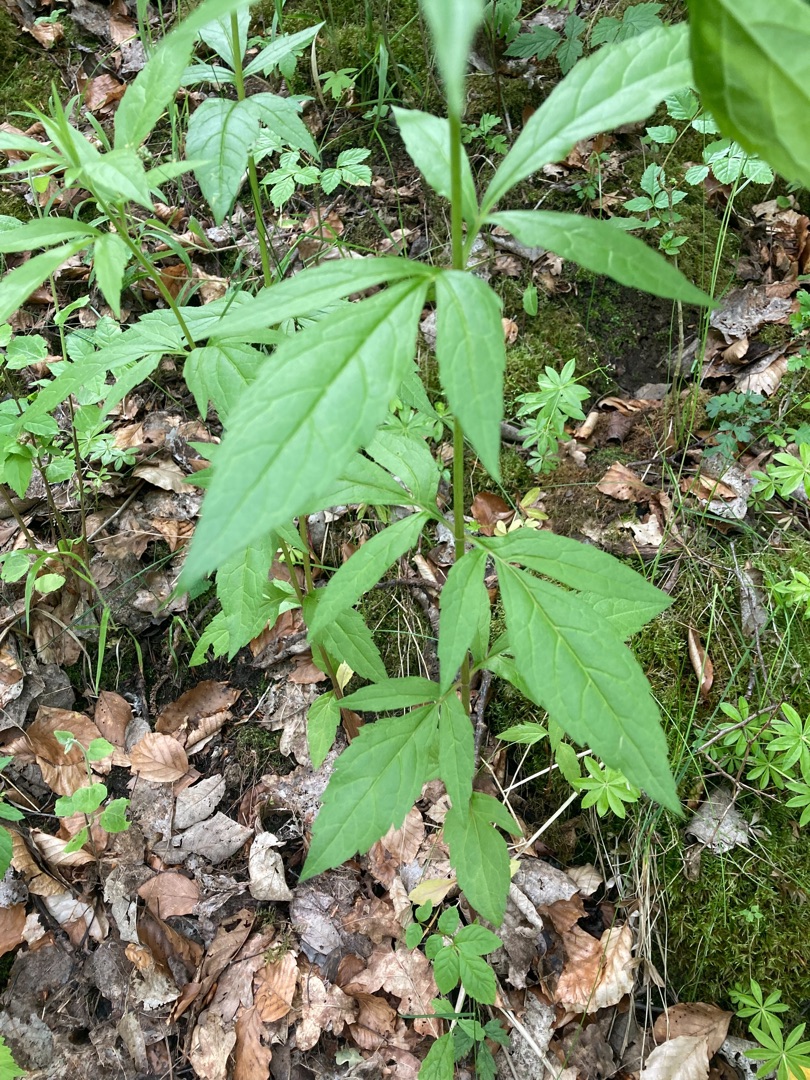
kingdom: Plantae
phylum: Tracheophyta
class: Magnoliopsida
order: Asterales
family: Asteraceae
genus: Eupatorium
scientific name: Eupatorium cannabinum
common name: Hjortetrøst
